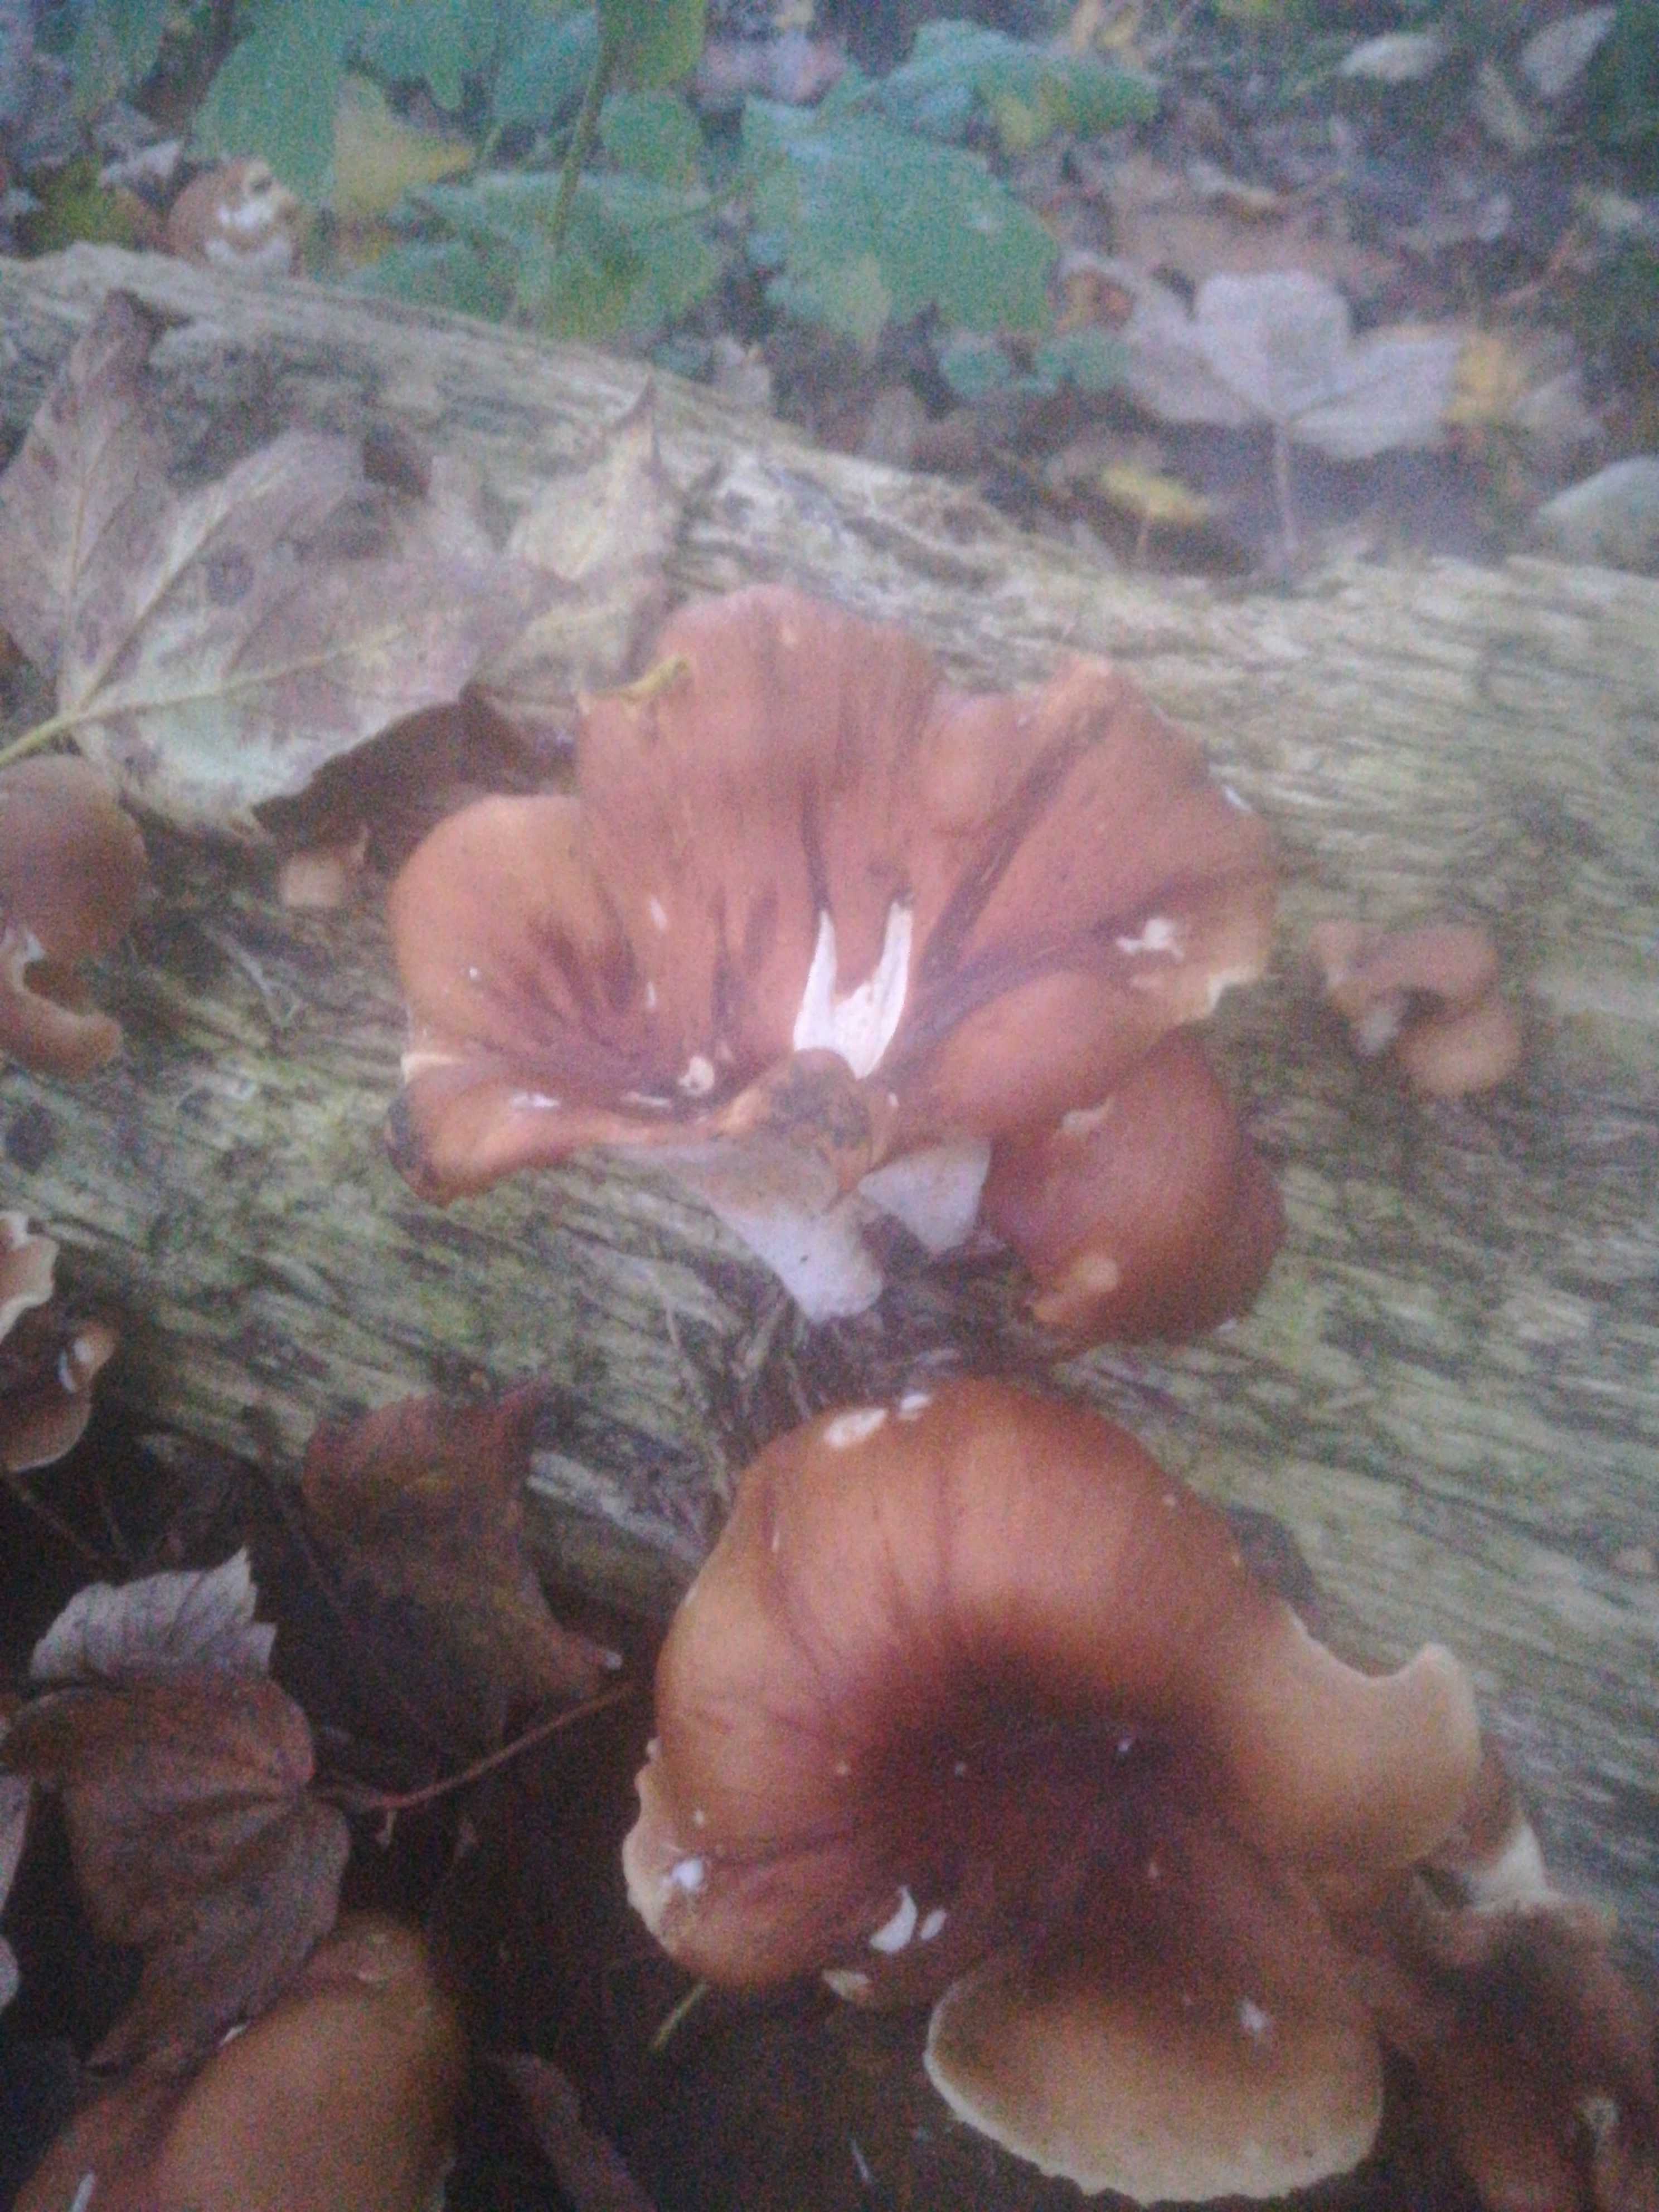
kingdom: Fungi
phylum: Basidiomycota
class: Agaricomycetes
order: Polyporales
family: Polyporaceae
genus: Picipes
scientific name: Picipes badius
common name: kastaniebrun stilkporesvamp
